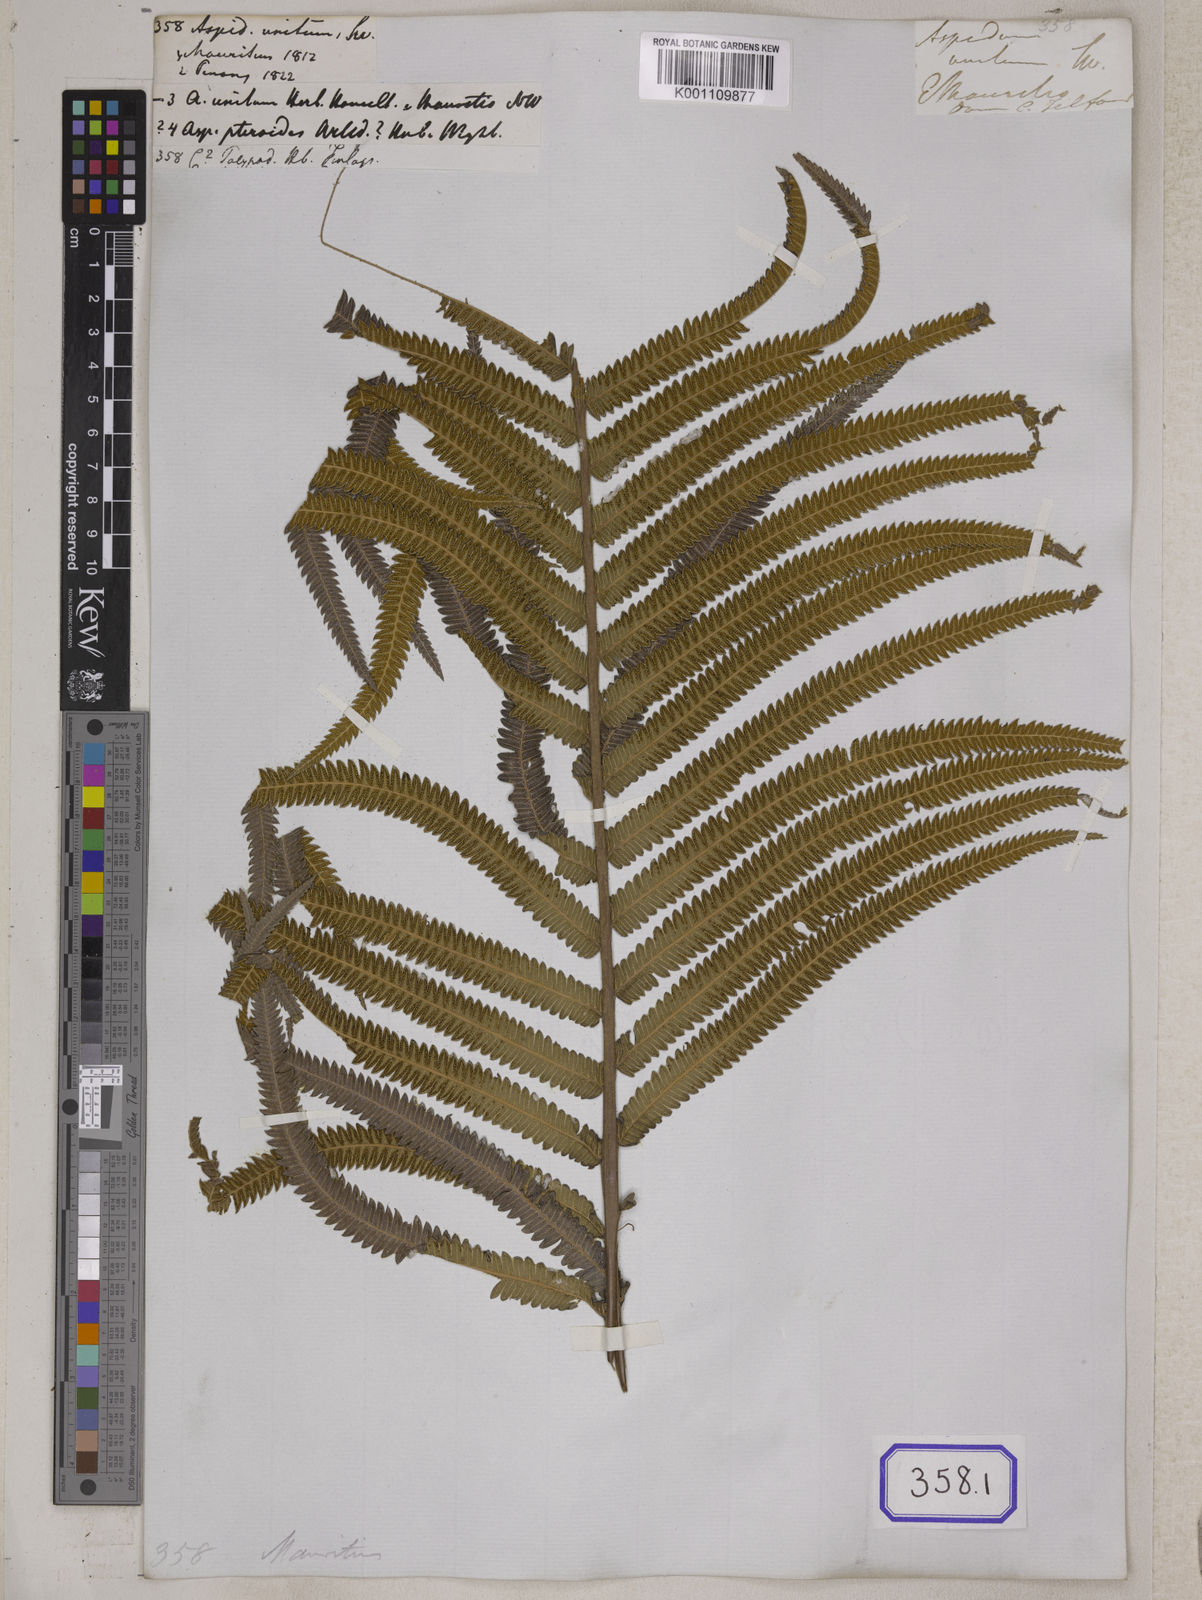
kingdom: Plantae
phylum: Tracheophyta
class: Polypodiopsida
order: Polypodiales
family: Thelypteridaceae
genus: Cyclosorus
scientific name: Cyclosorus interruptus
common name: Neke fern
